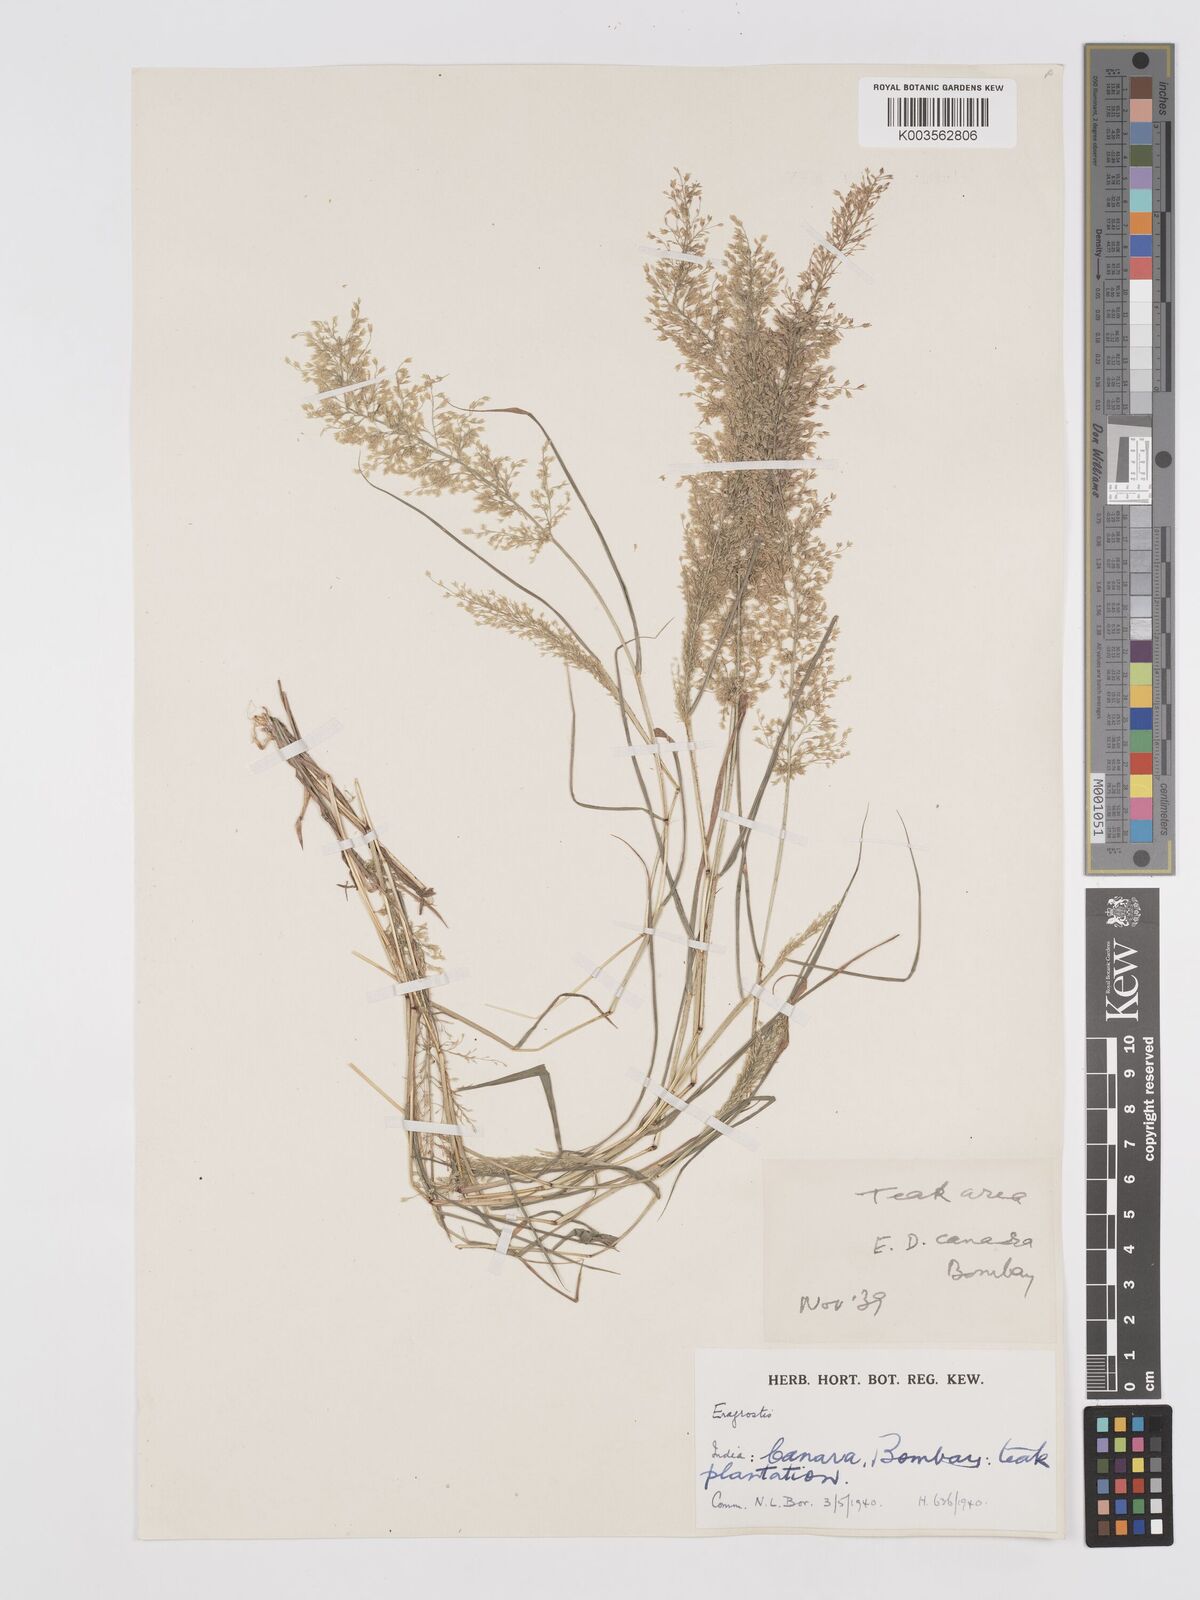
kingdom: Plantae
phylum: Tracheophyta
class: Liliopsida
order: Poales
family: Poaceae
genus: Eragrostis
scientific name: Eragrostis viscosa
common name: Sticky love grass
